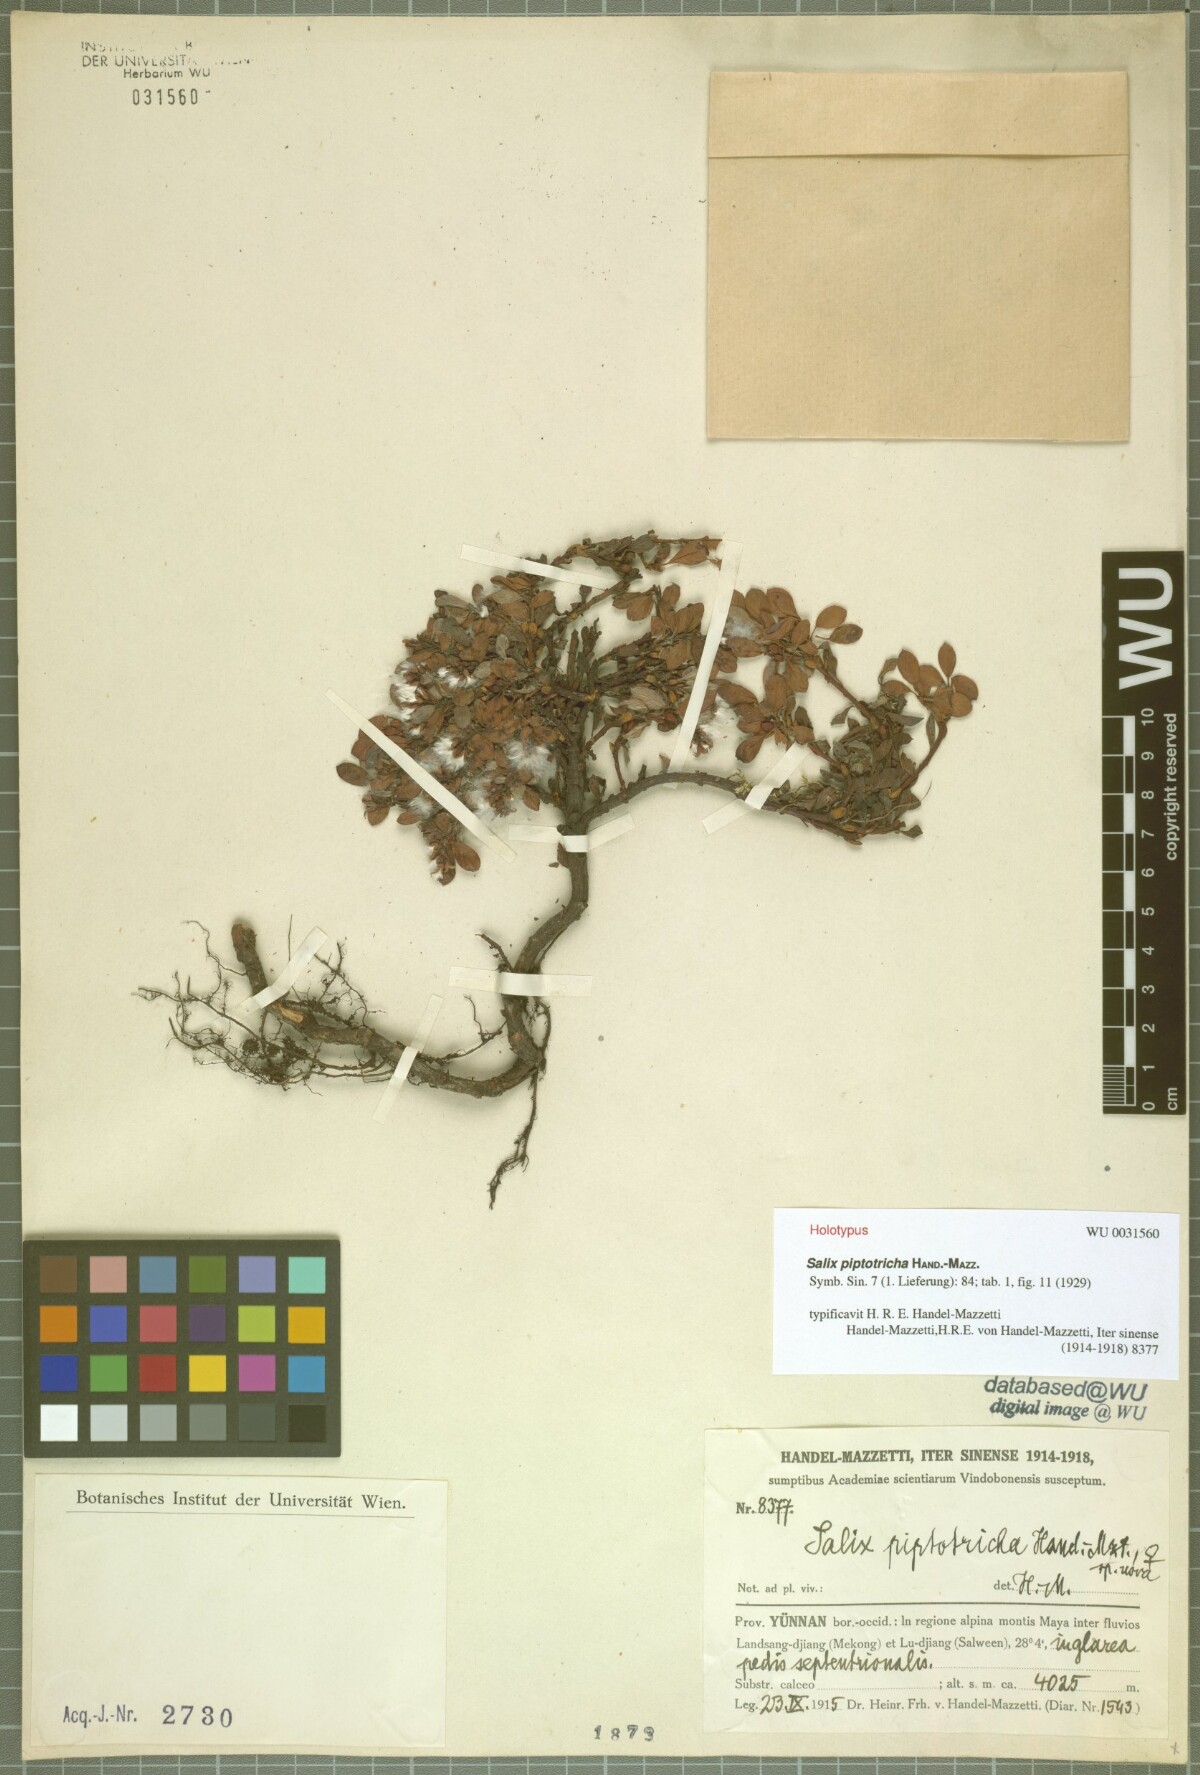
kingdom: Plantae
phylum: Tracheophyta
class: Magnoliopsida
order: Malpighiales
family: Salicaceae
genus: Salix
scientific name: Salix piptotricha
